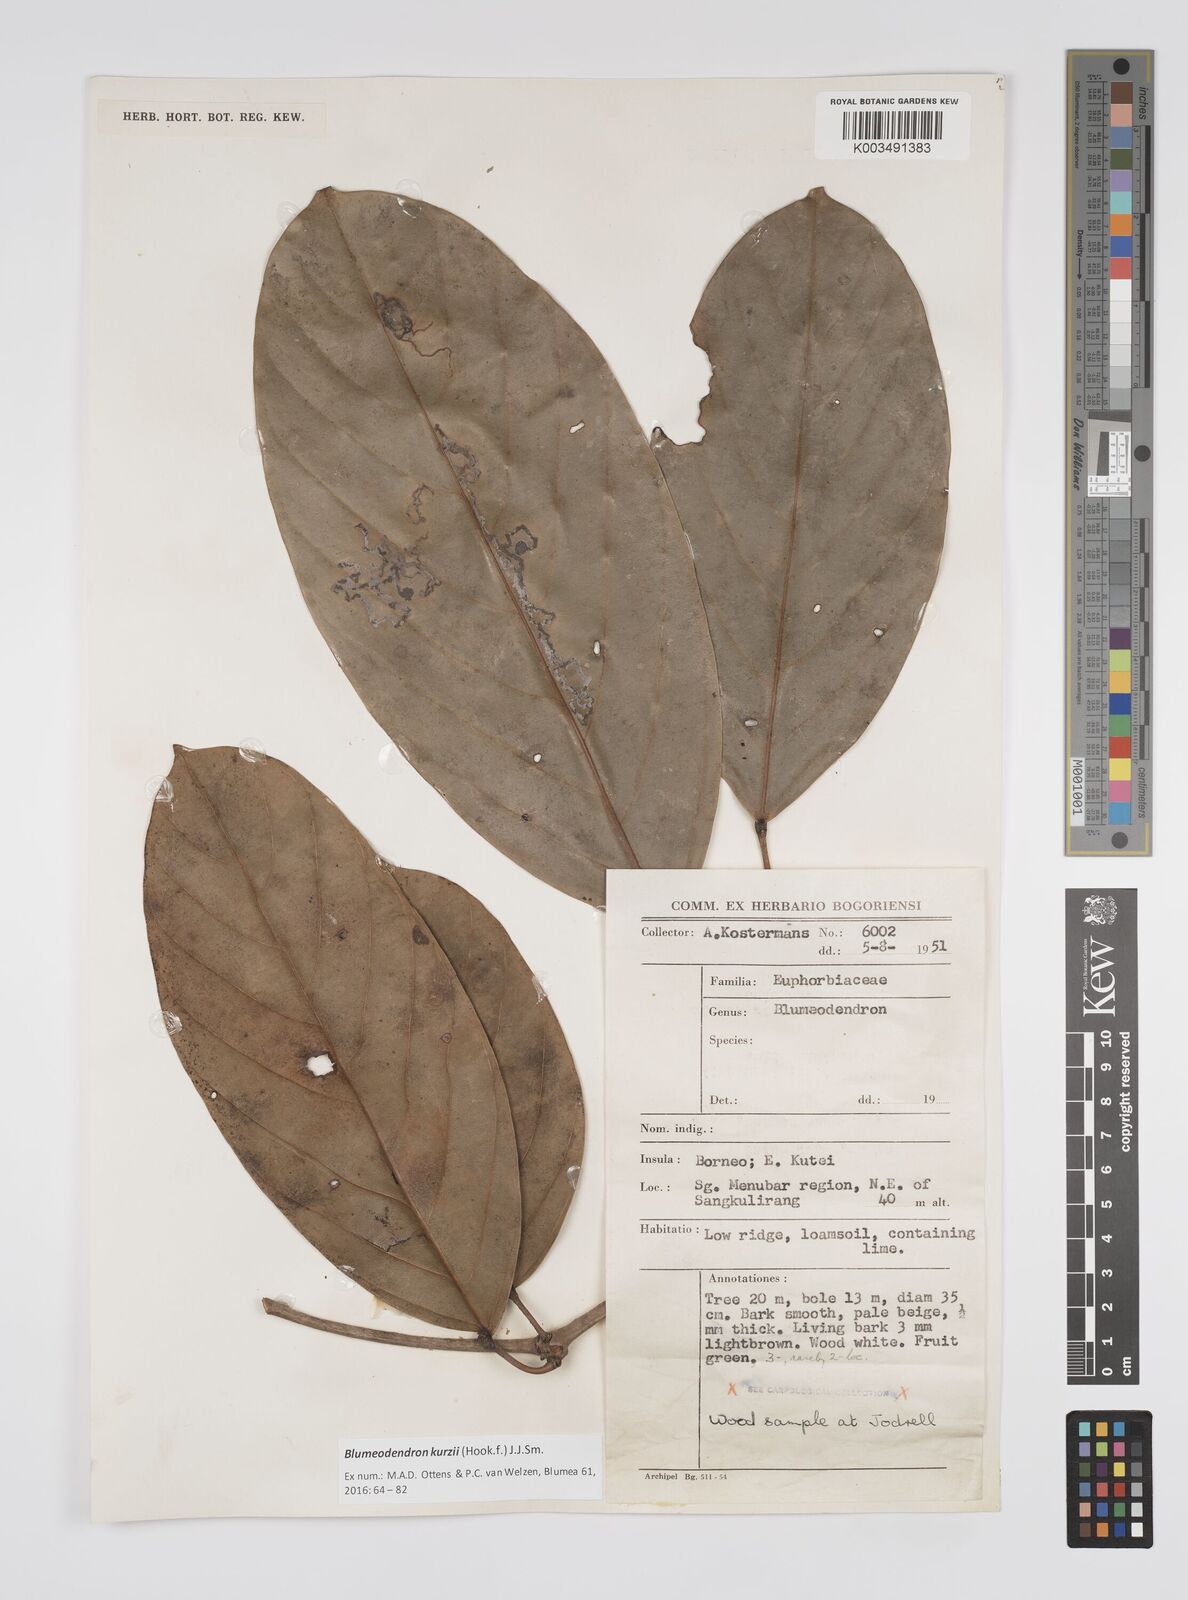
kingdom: Plantae
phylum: Tracheophyta
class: Magnoliopsida
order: Malpighiales
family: Euphorbiaceae
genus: Blumeodendron
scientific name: Blumeodendron kurzii
